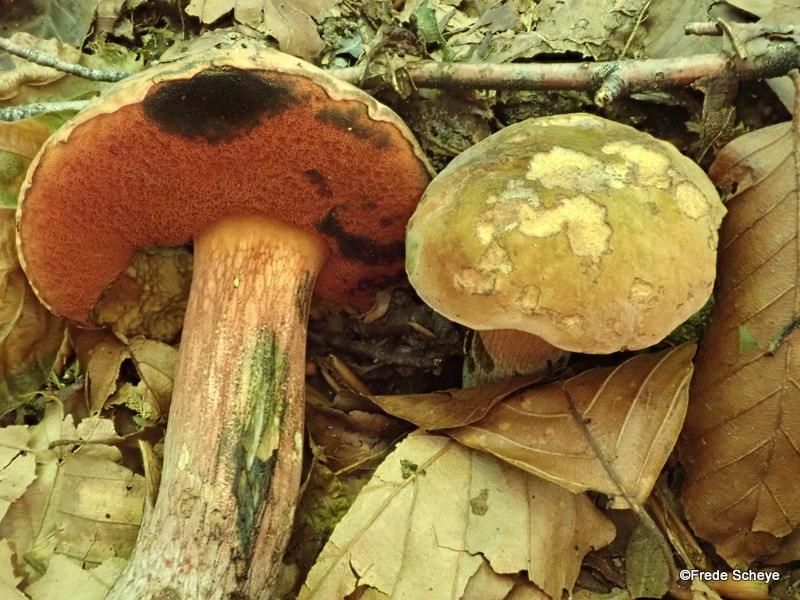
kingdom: Fungi
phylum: Basidiomycota
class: Agaricomycetes
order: Boletales
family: Boletaceae
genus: Suillellus
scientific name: Suillellus luridus
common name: netstokket indigorørhat
